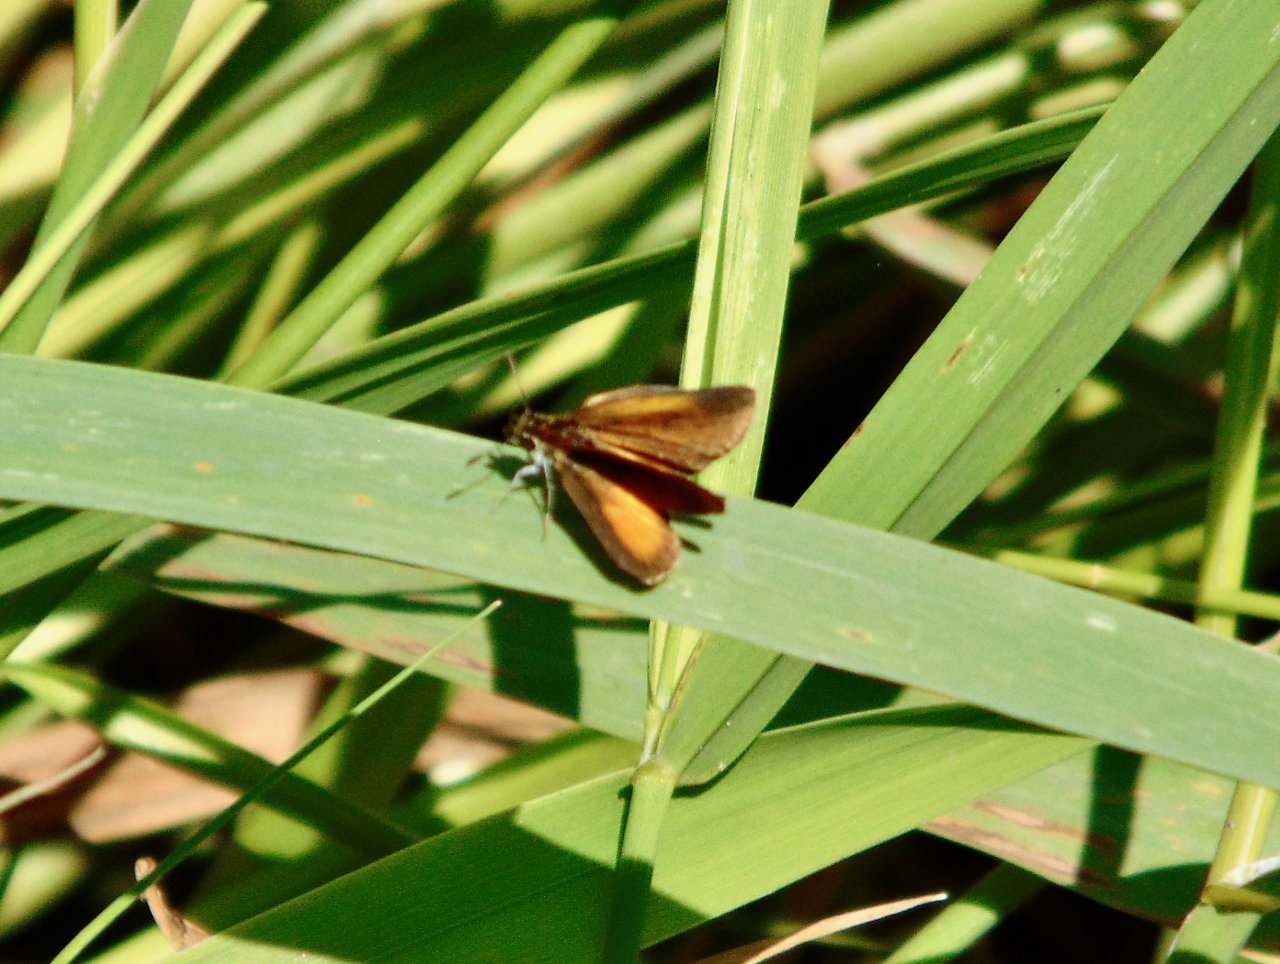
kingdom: Animalia
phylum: Arthropoda
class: Insecta
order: Lepidoptera
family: Hesperiidae
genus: Ancyloxypha
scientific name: Ancyloxypha numitor
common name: Least Skipper
